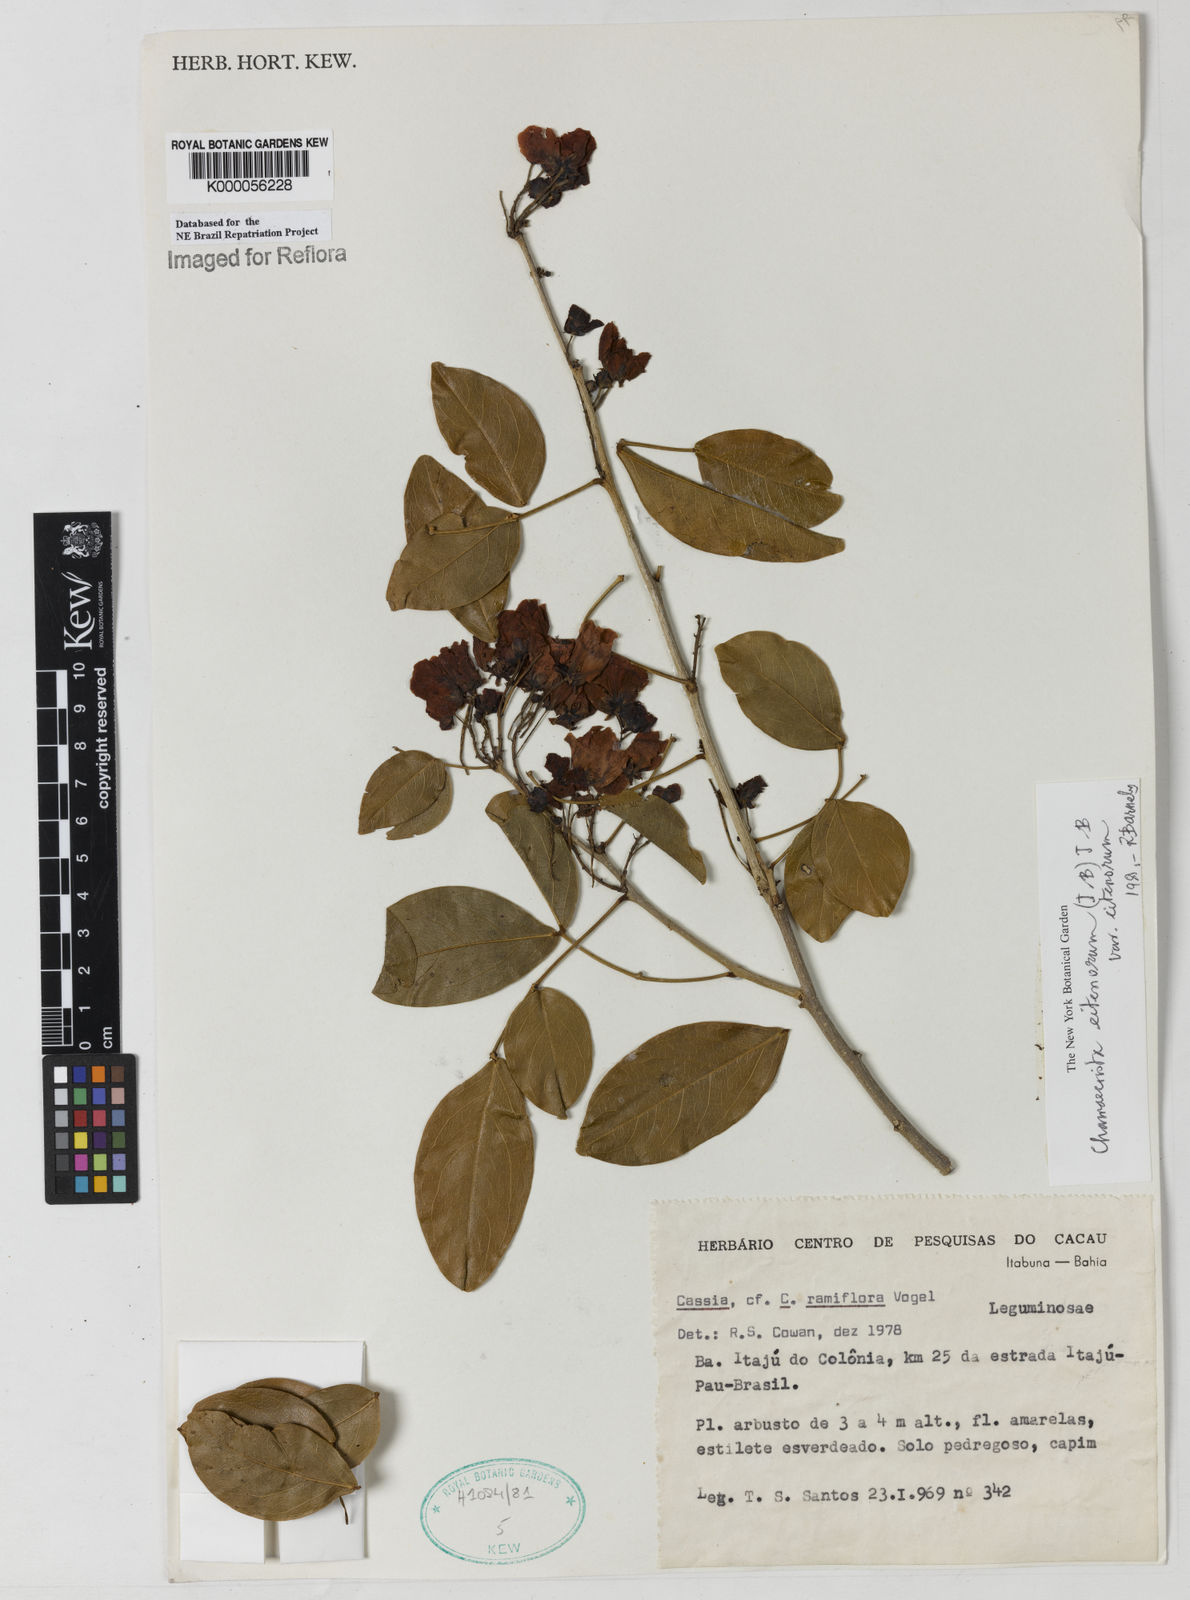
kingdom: Plantae
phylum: Tracheophyta
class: Magnoliopsida
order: Fabales
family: Fabaceae
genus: Chamaecrista
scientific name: Chamaecrista eitenorum
